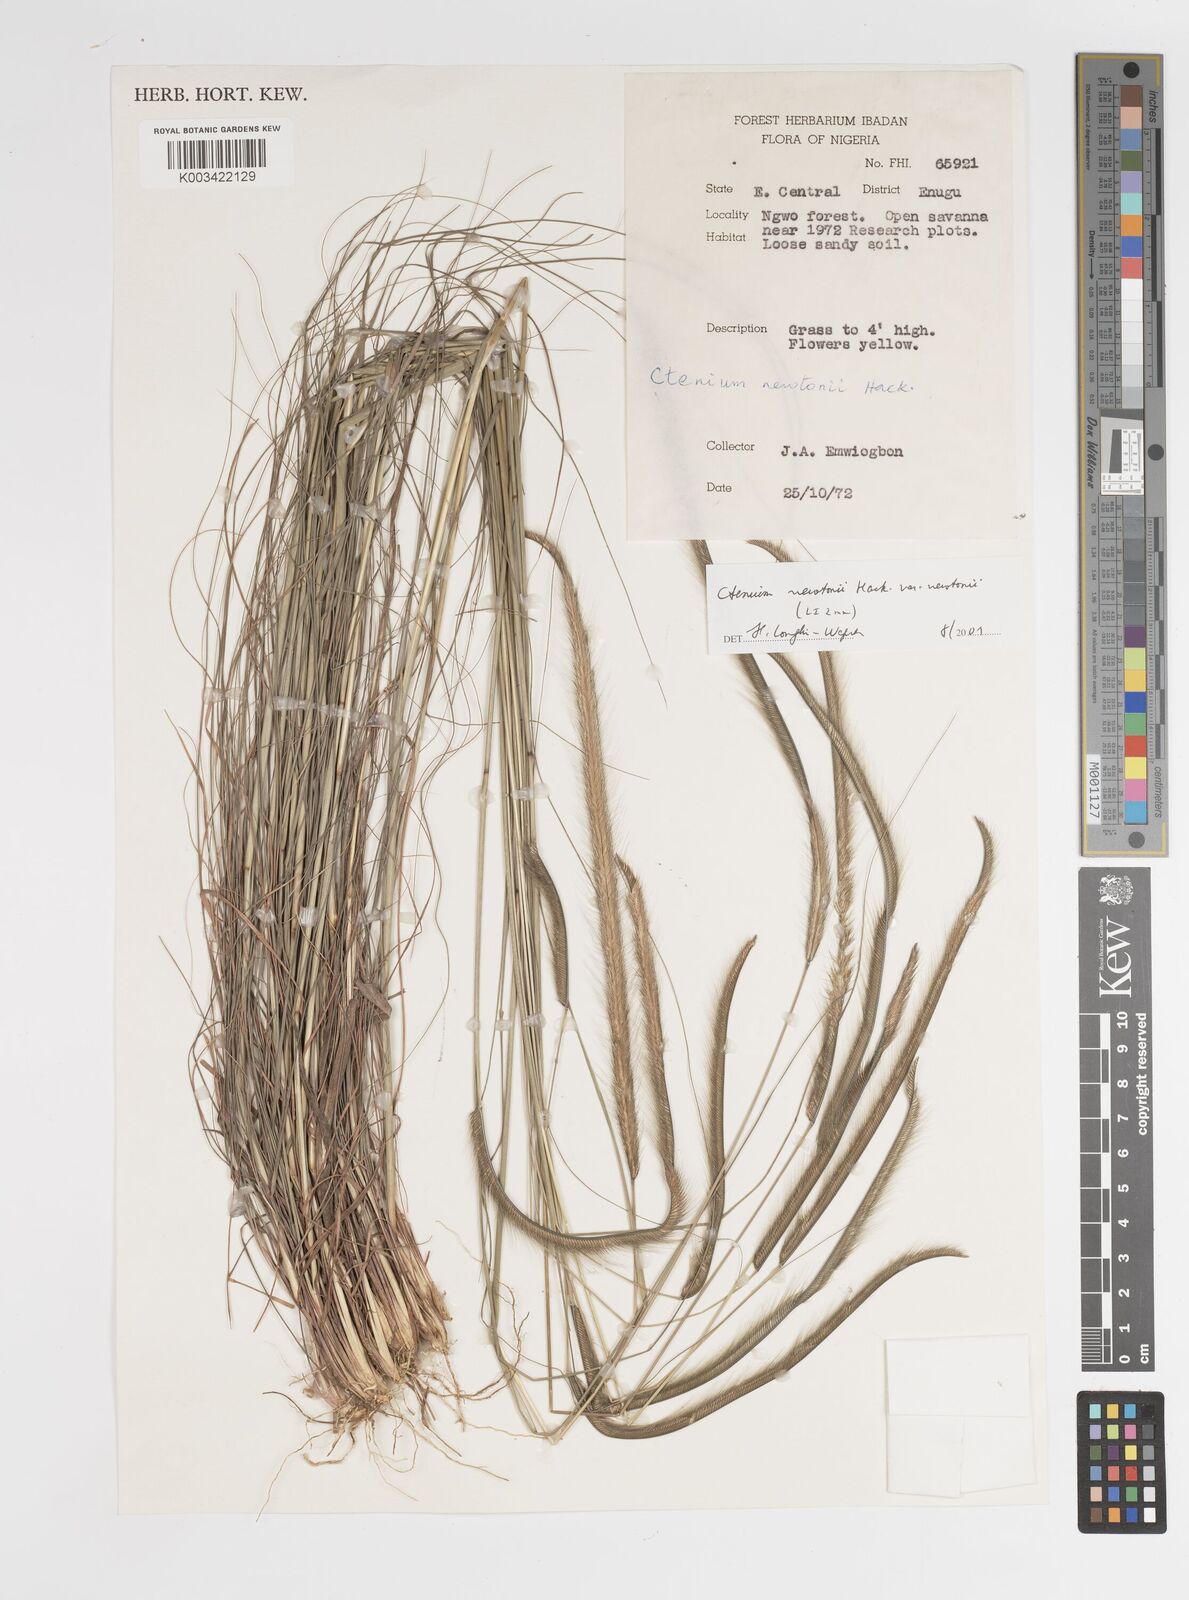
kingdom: Plantae
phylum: Tracheophyta
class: Liliopsida
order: Poales
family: Poaceae
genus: Ctenium
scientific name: Ctenium newtonii
